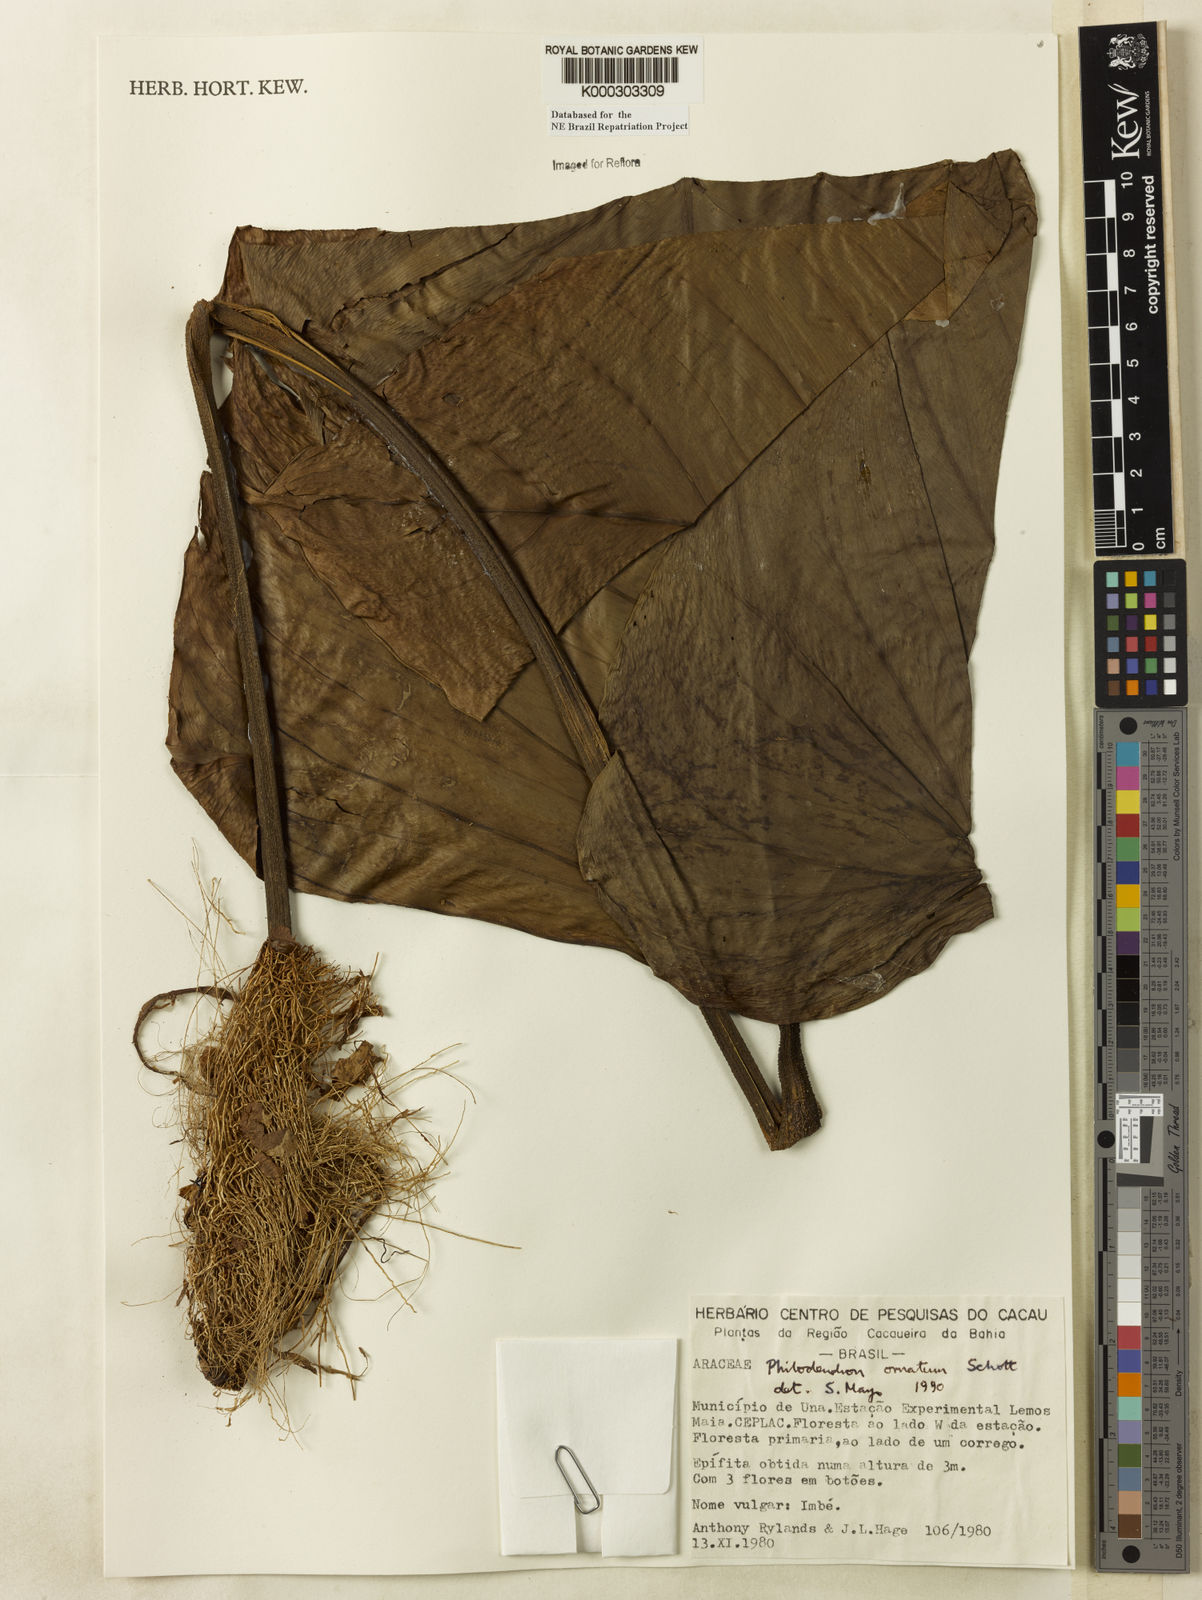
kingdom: Plantae
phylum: Tracheophyta
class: Liliopsida
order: Alismatales
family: Araceae
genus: Philodendron
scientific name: Philodendron ornatum
